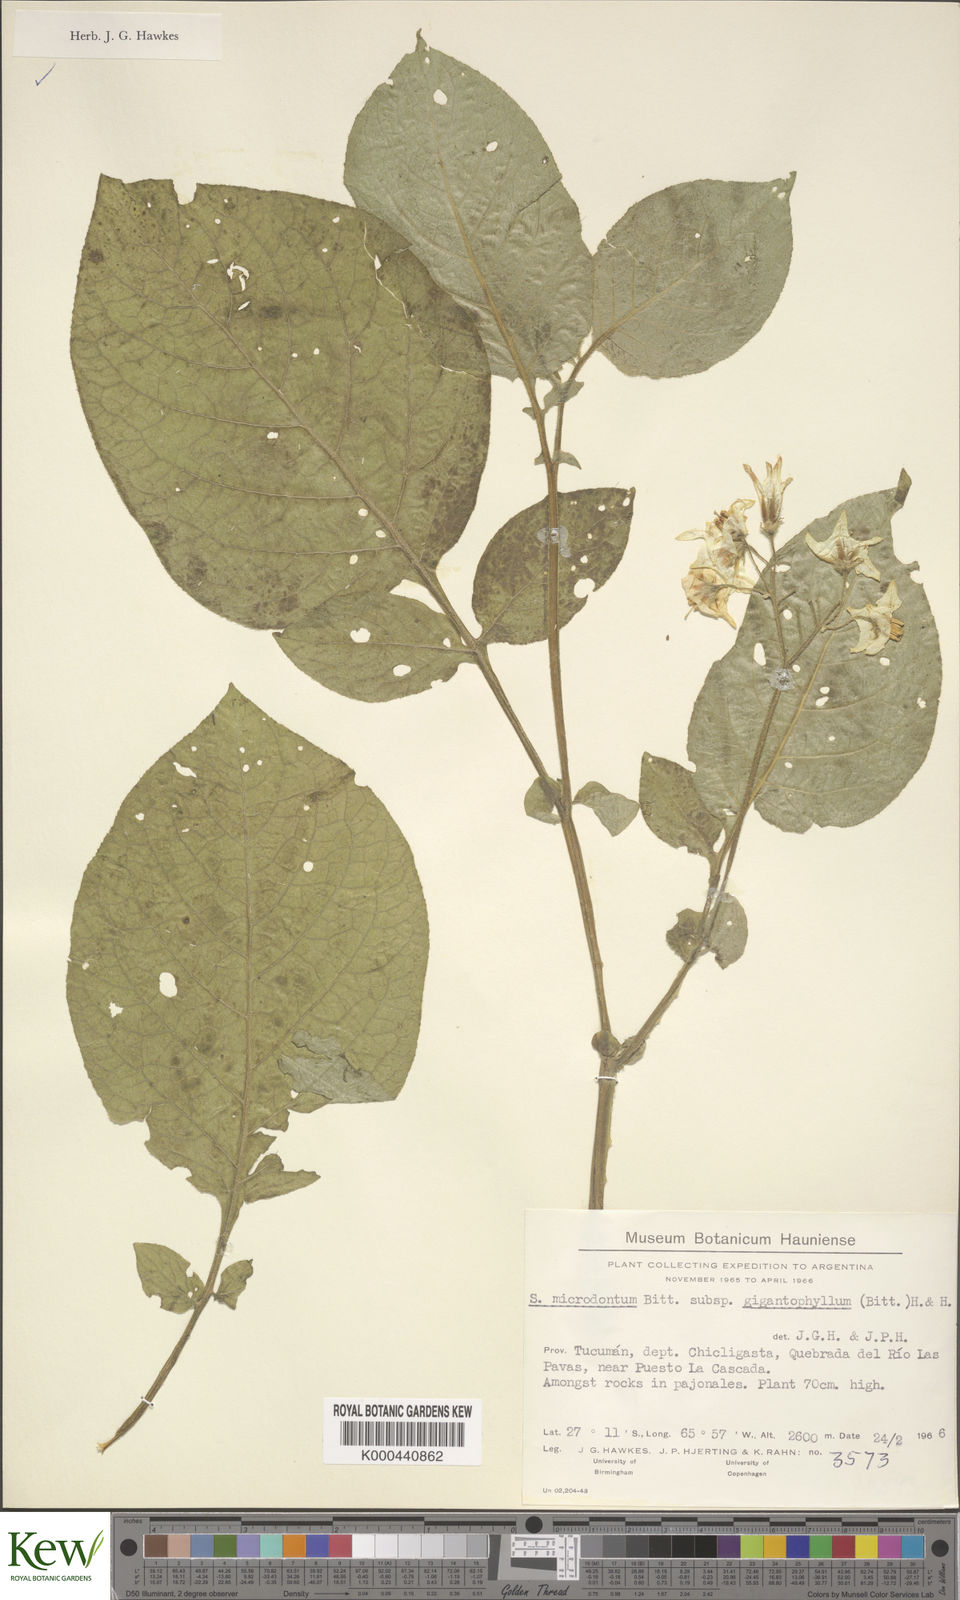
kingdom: Plantae
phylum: Tracheophyta
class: Magnoliopsida
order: Solanales
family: Solanaceae
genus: Solanum
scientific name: Solanum microdontum
